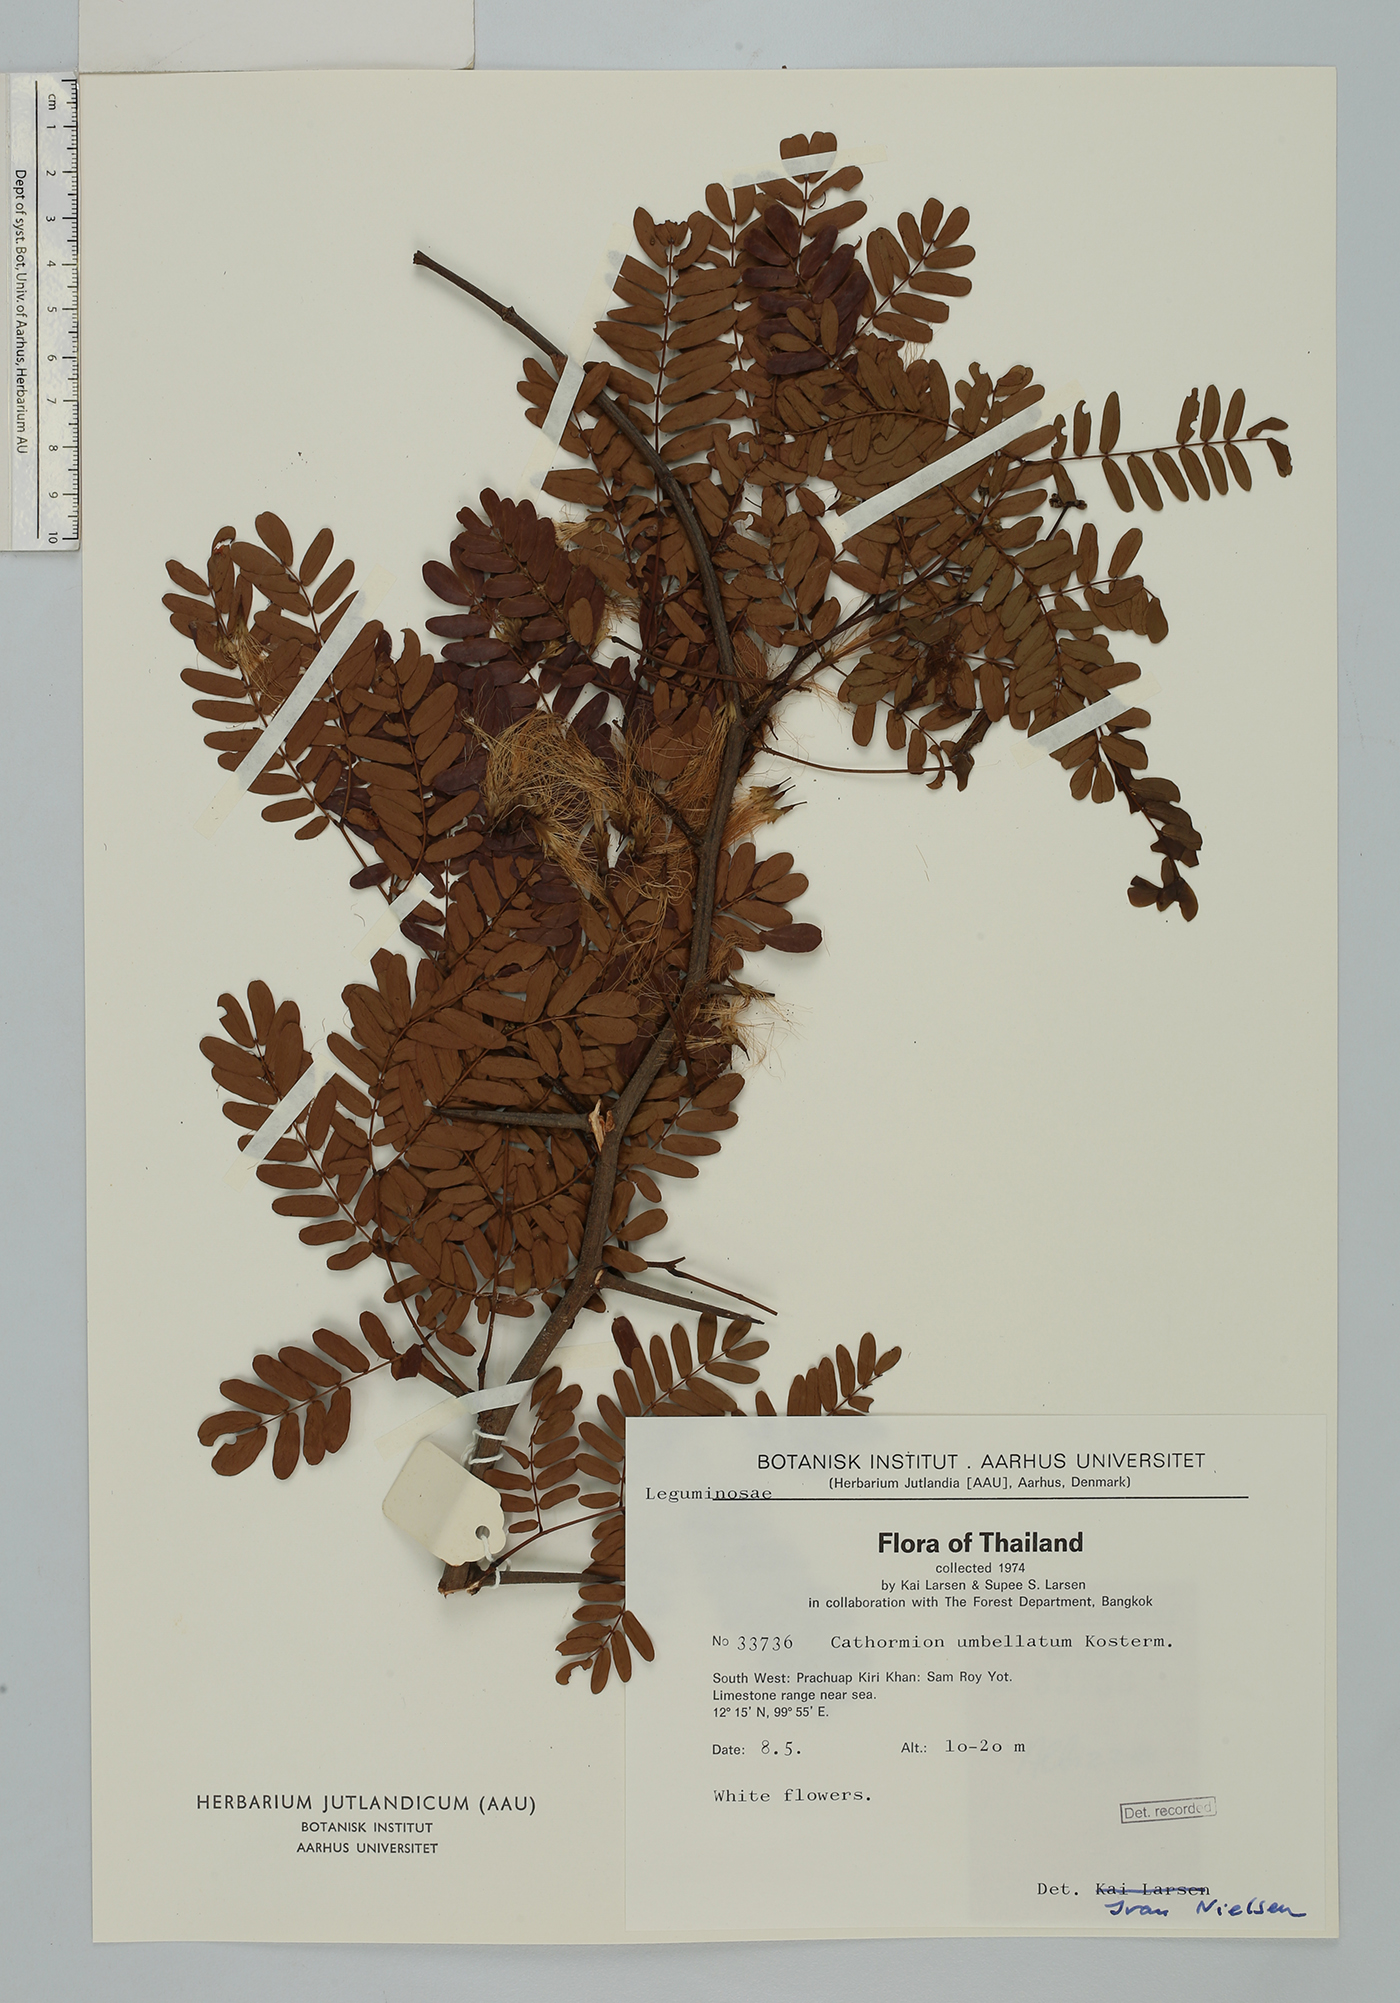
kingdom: Plantae
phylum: Tracheophyta
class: Magnoliopsida
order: Fabales
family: Fabaceae
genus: Cathormion
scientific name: Cathormion umbellatum
